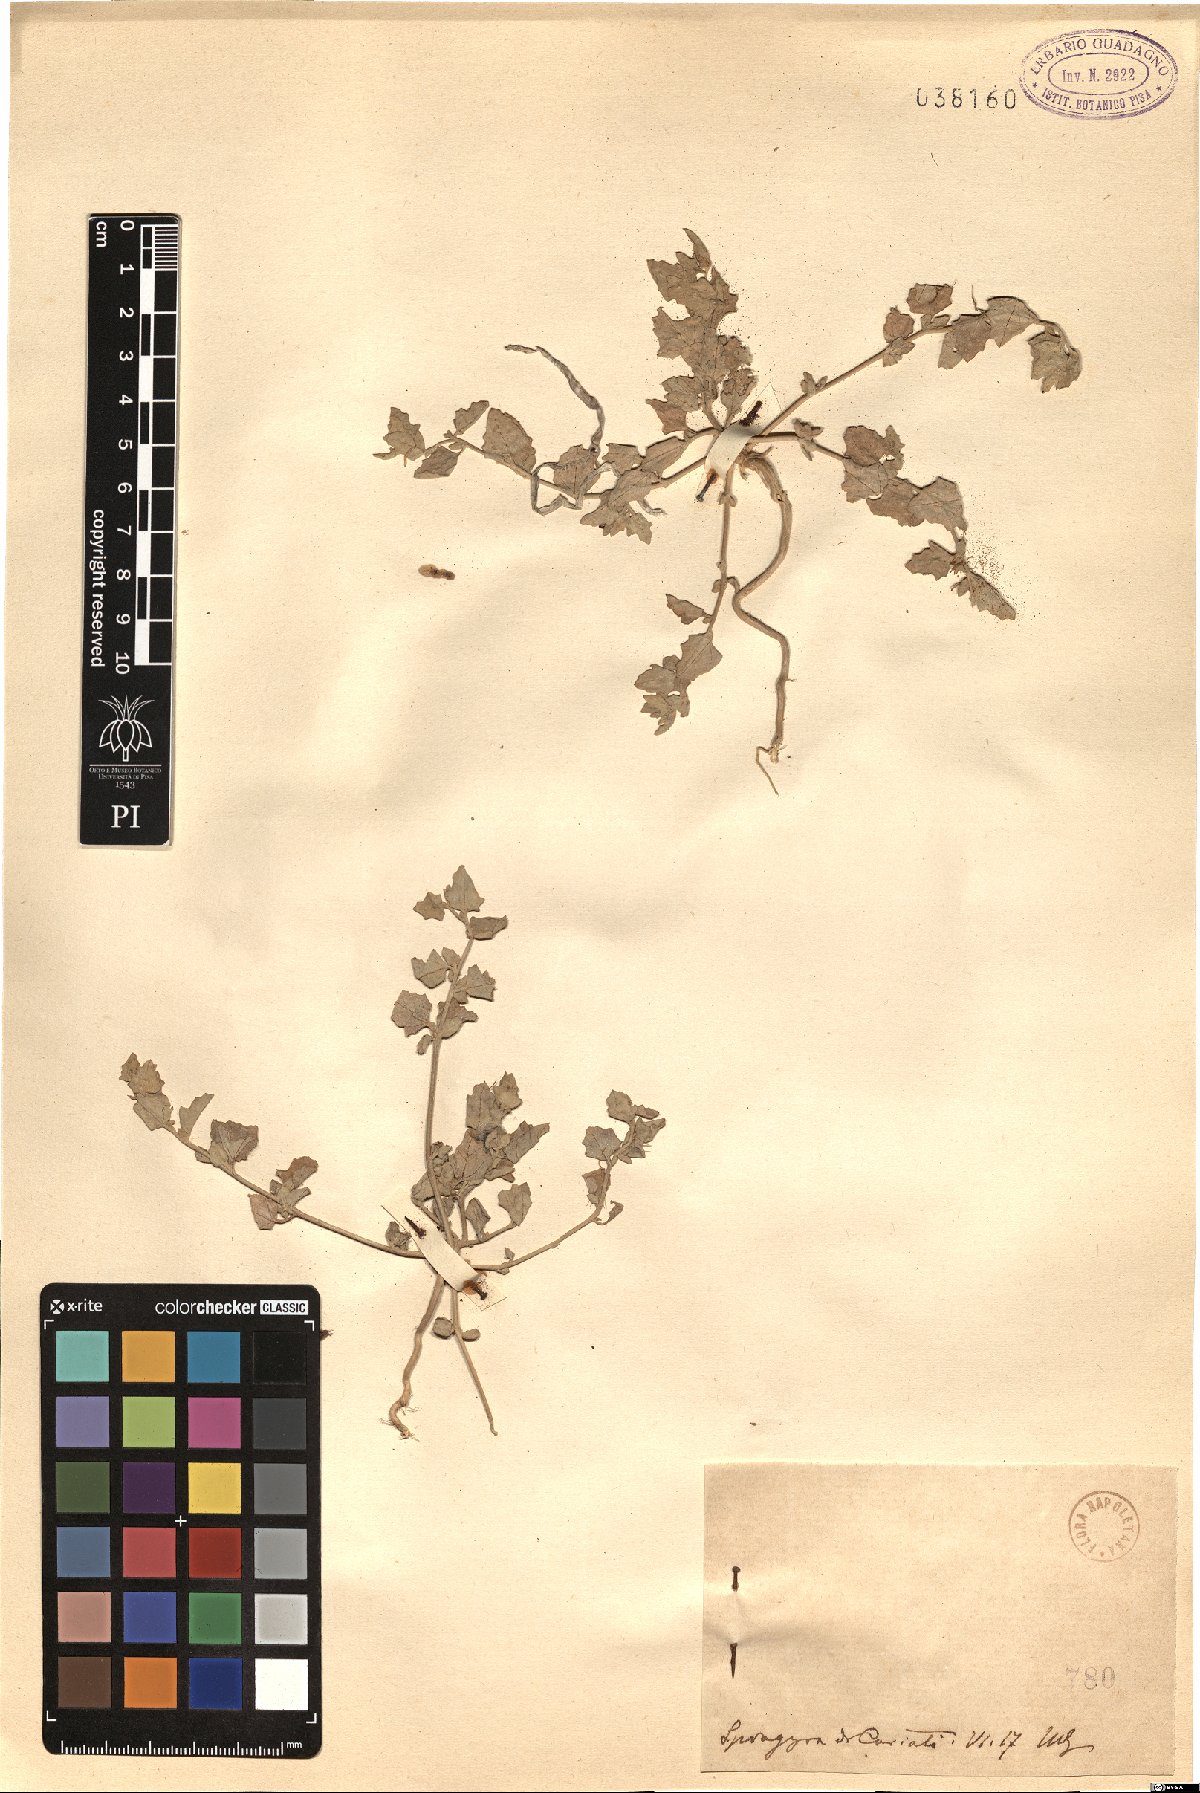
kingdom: Plantae
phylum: Tracheophyta
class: Magnoliopsida
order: Caryophyllales
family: Amaranthaceae
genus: Atriplex
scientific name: Atriplex
